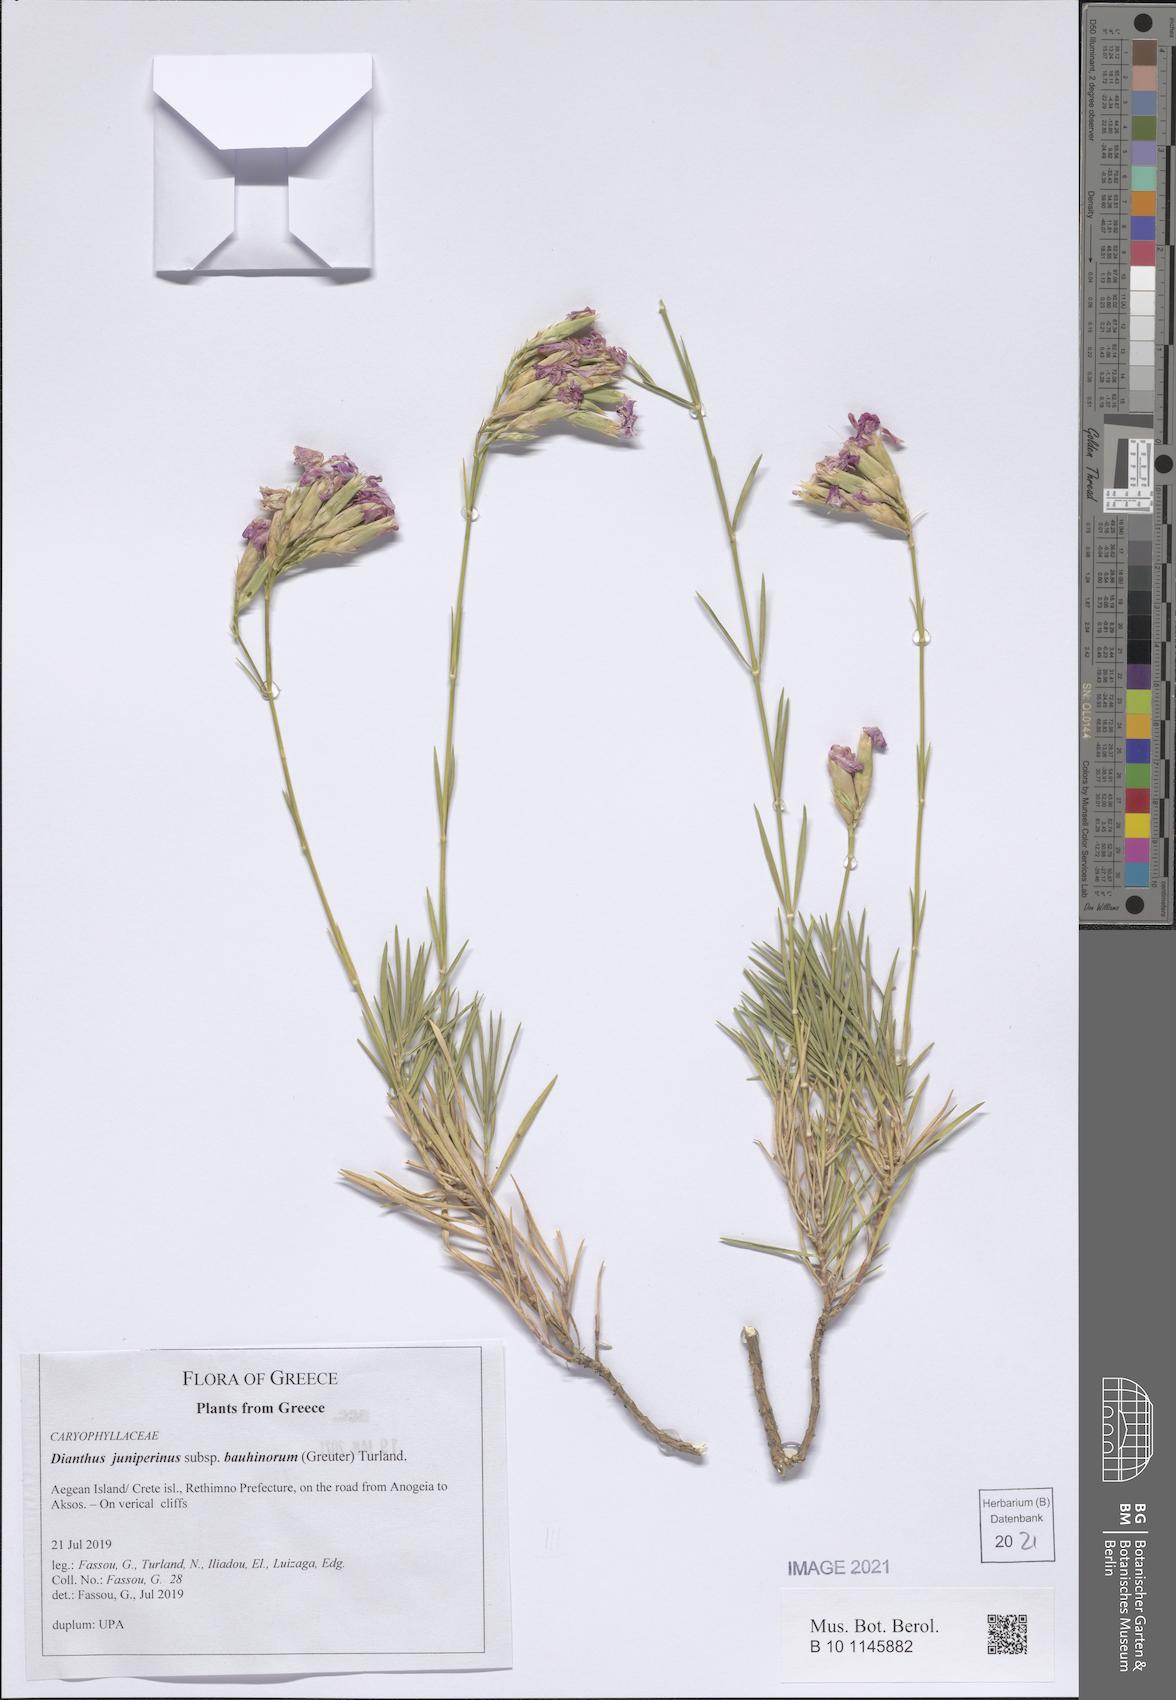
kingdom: Plantae
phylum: Tracheophyta
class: Magnoliopsida
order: Caryophyllales
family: Caryophyllaceae
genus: Dianthus
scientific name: Dianthus juniperinus
